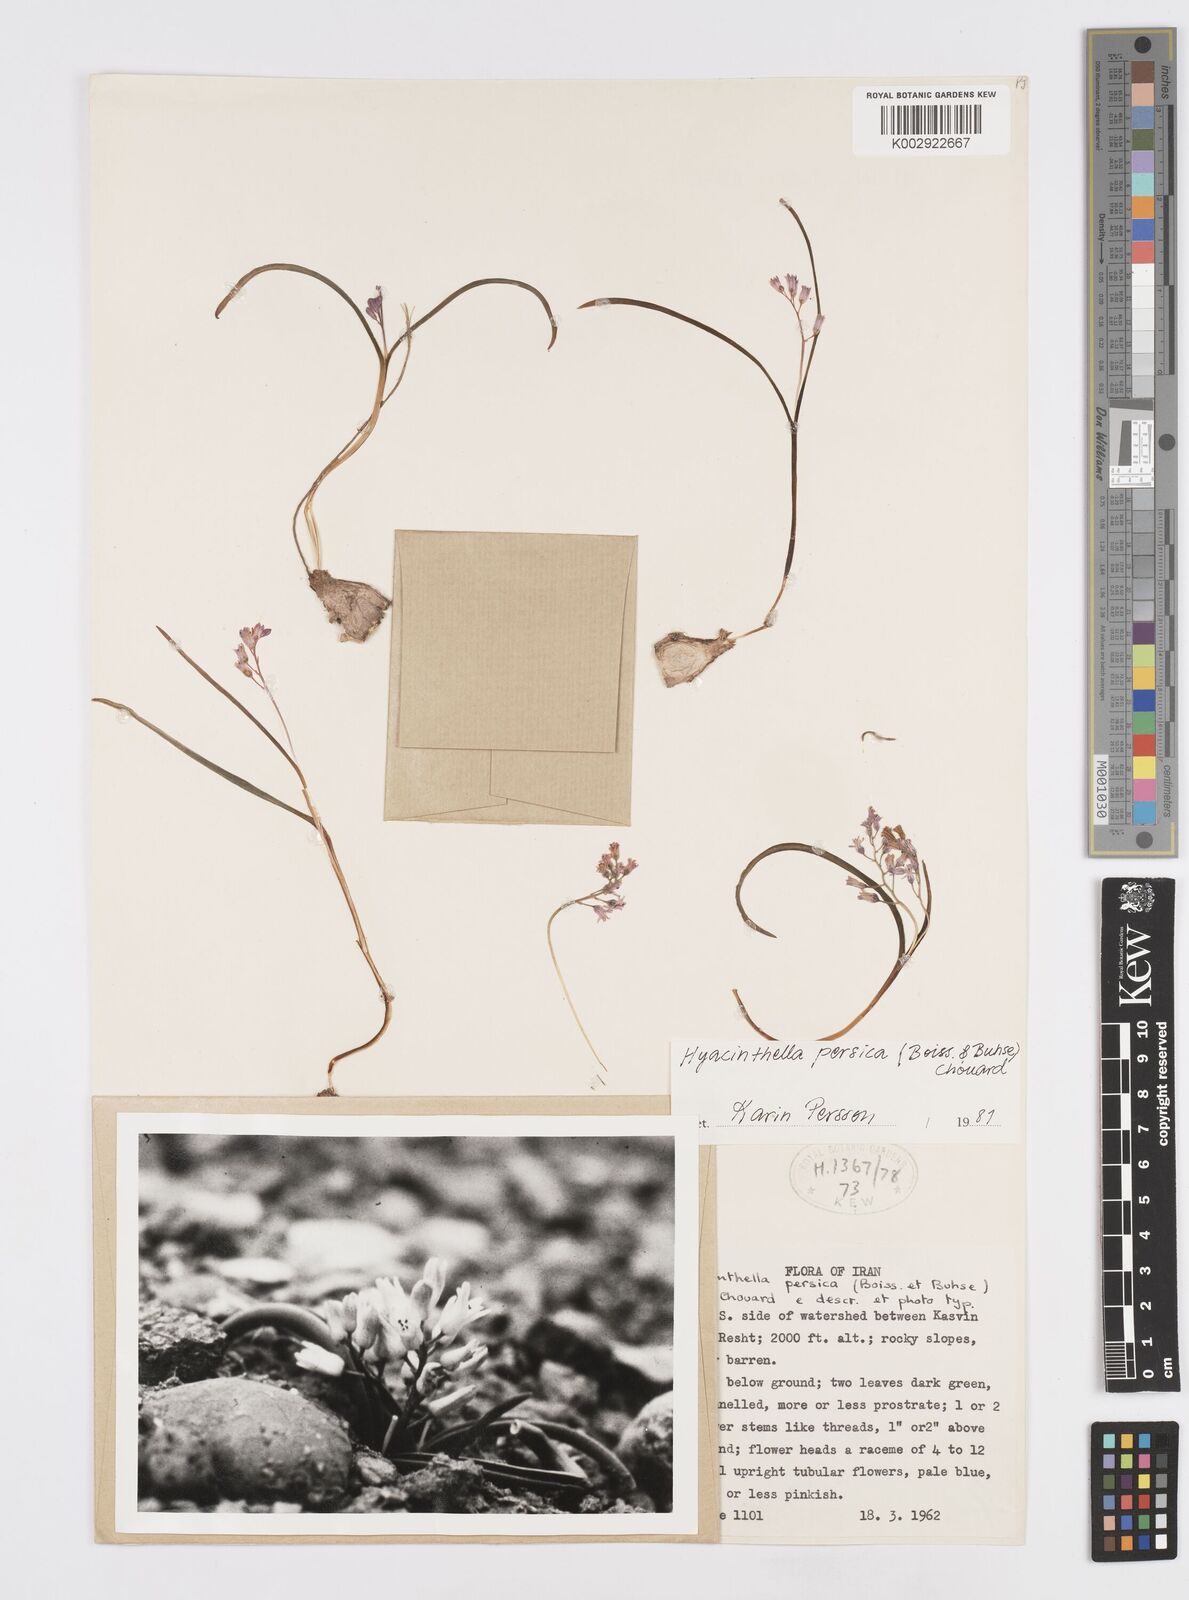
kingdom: Plantae
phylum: Tracheophyta
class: Liliopsida
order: Asparagales
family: Asparagaceae
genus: Hyacinthella
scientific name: Hyacinthella persica
